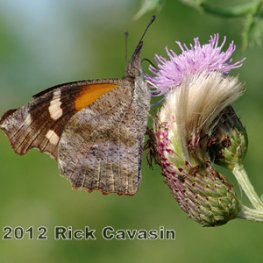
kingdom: Animalia
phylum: Arthropoda
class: Insecta
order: Lepidoptera
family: Nymphalidae
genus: Libytheana
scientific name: Libytheana carinenta
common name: American Snout
